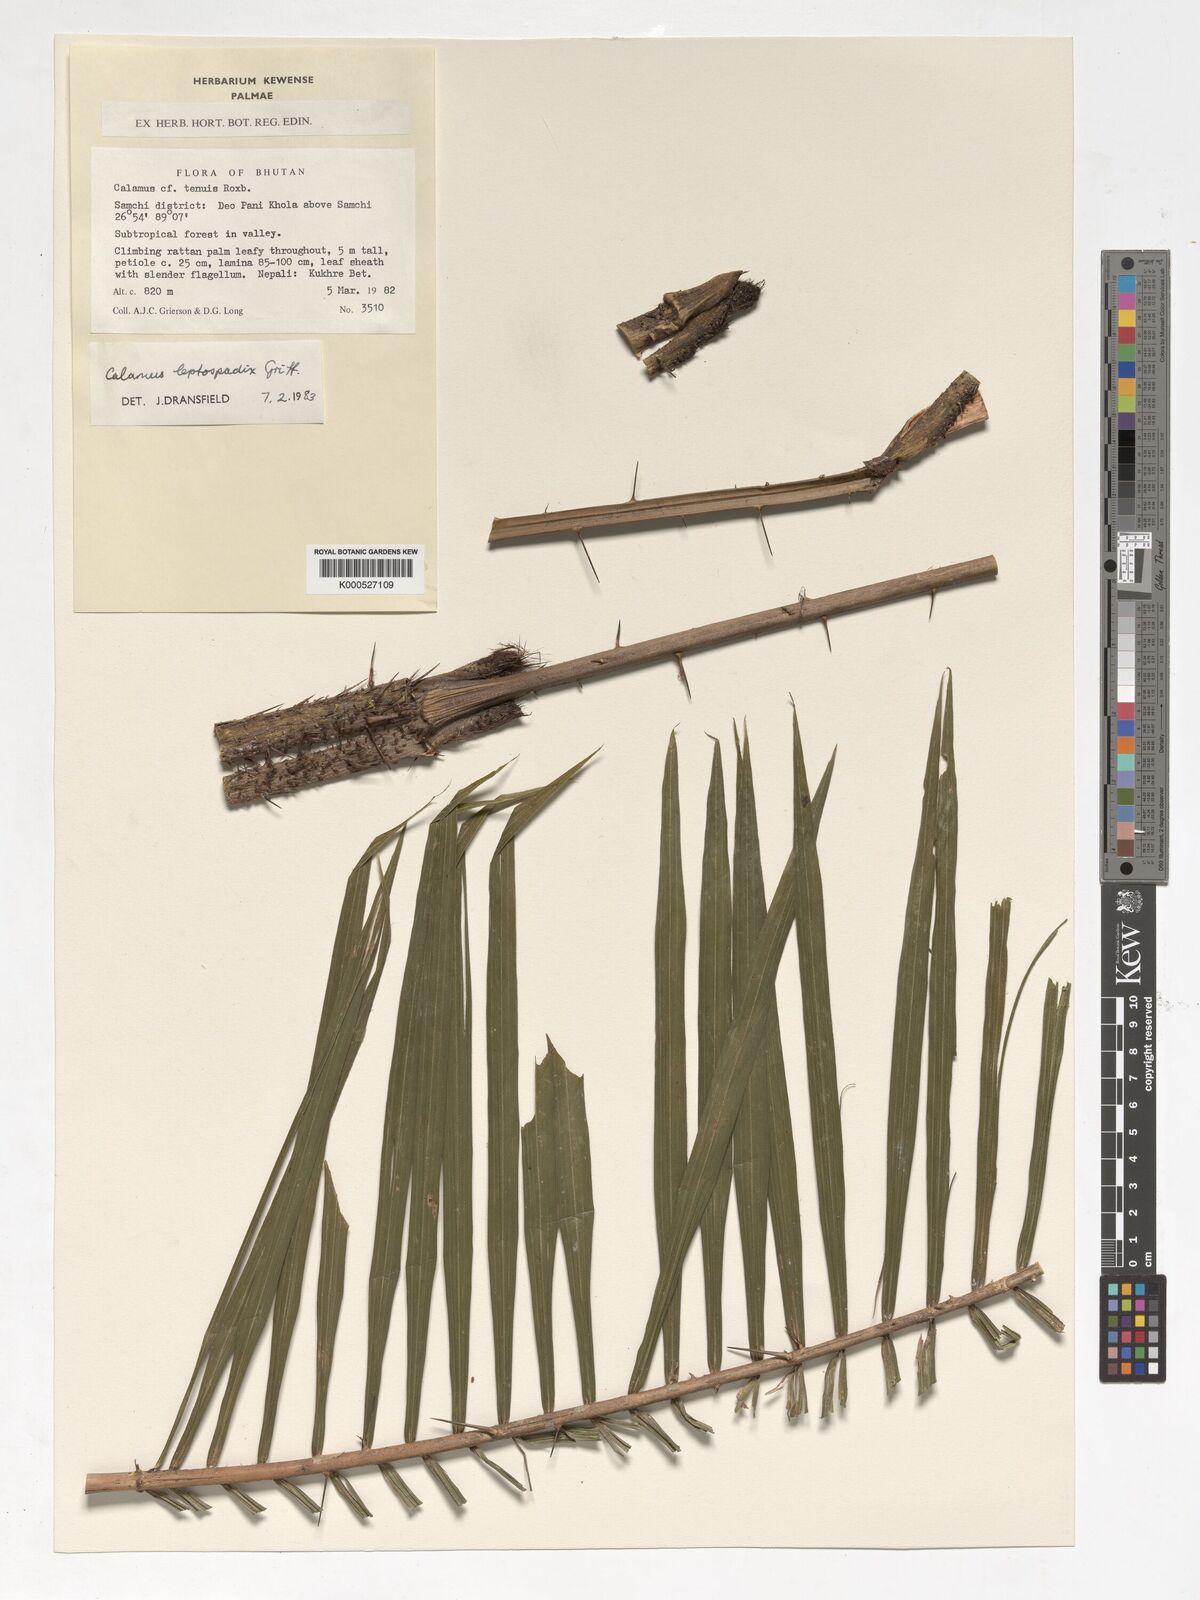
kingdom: Plantae
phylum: Tracheophyta
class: Liliopsida
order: Arecales
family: Arecaceae
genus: Calamus
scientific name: Calamus leptospadix
